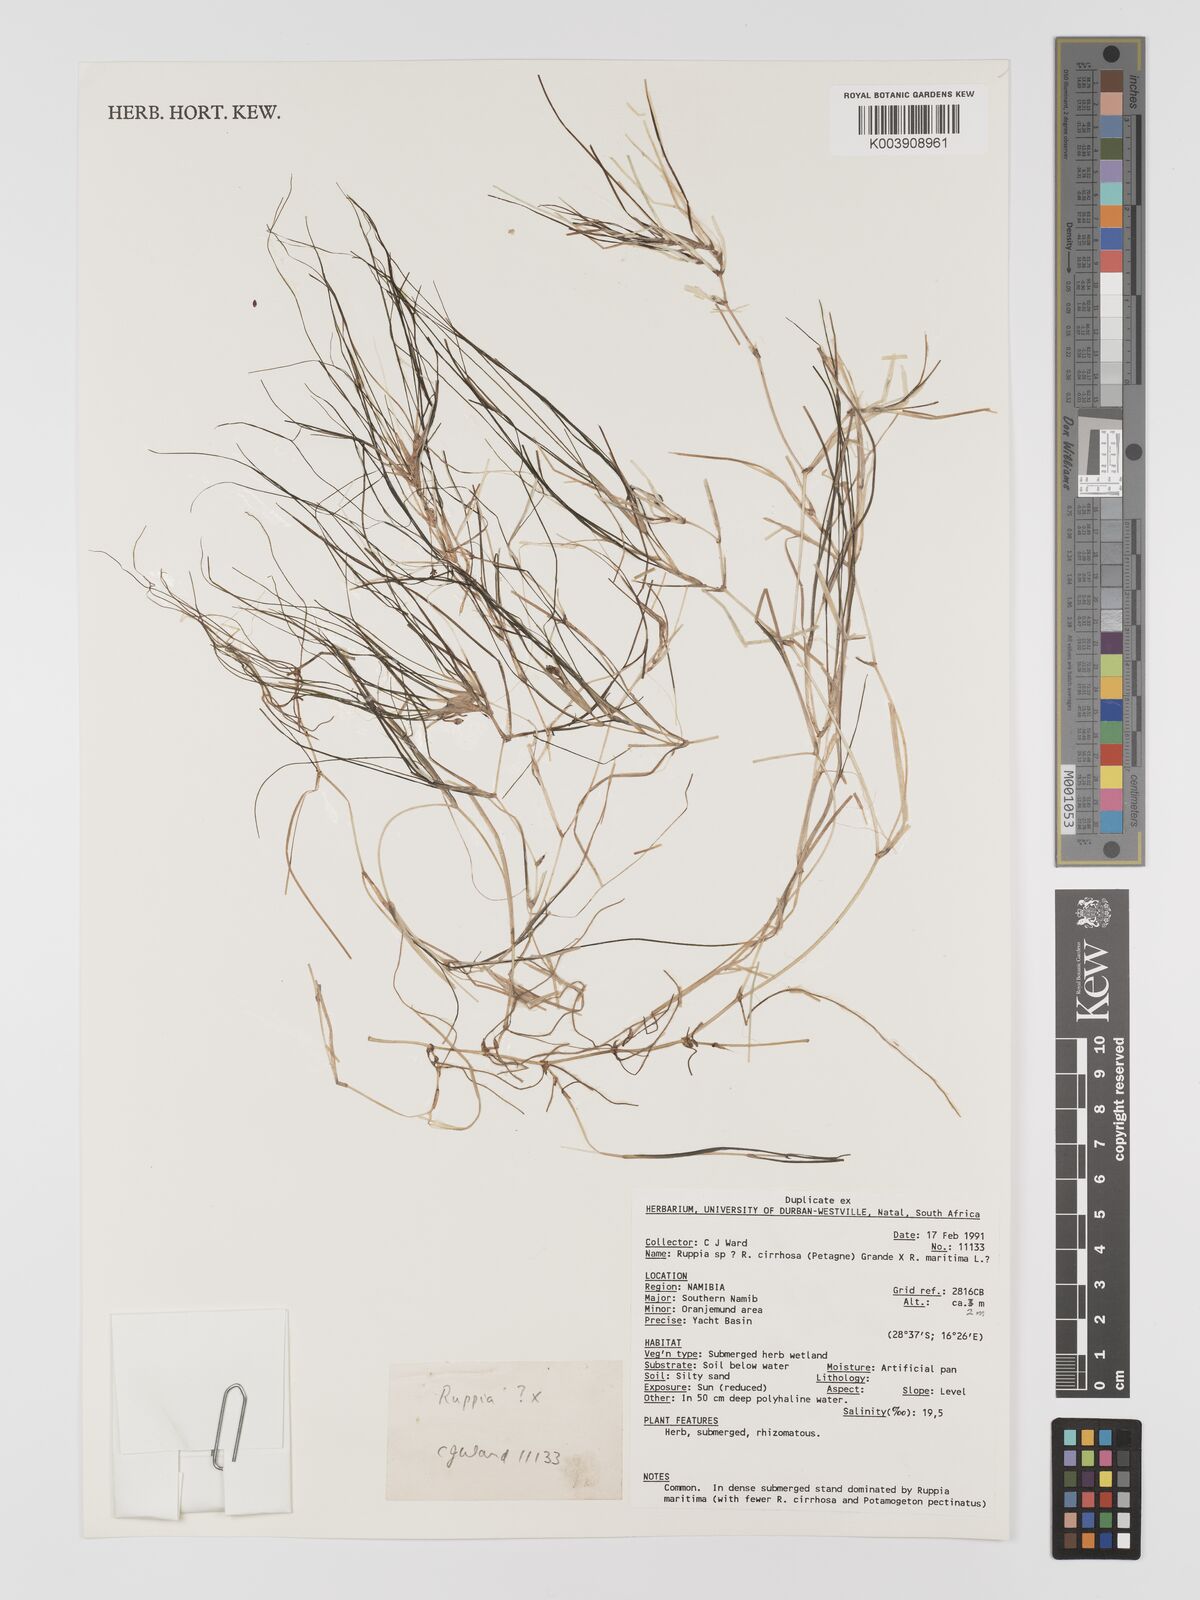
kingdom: Plantae
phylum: Tracheophyta
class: Liliopsida
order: Alismatales
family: Ruppiaceae
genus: Ruppia
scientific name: Ruppia
